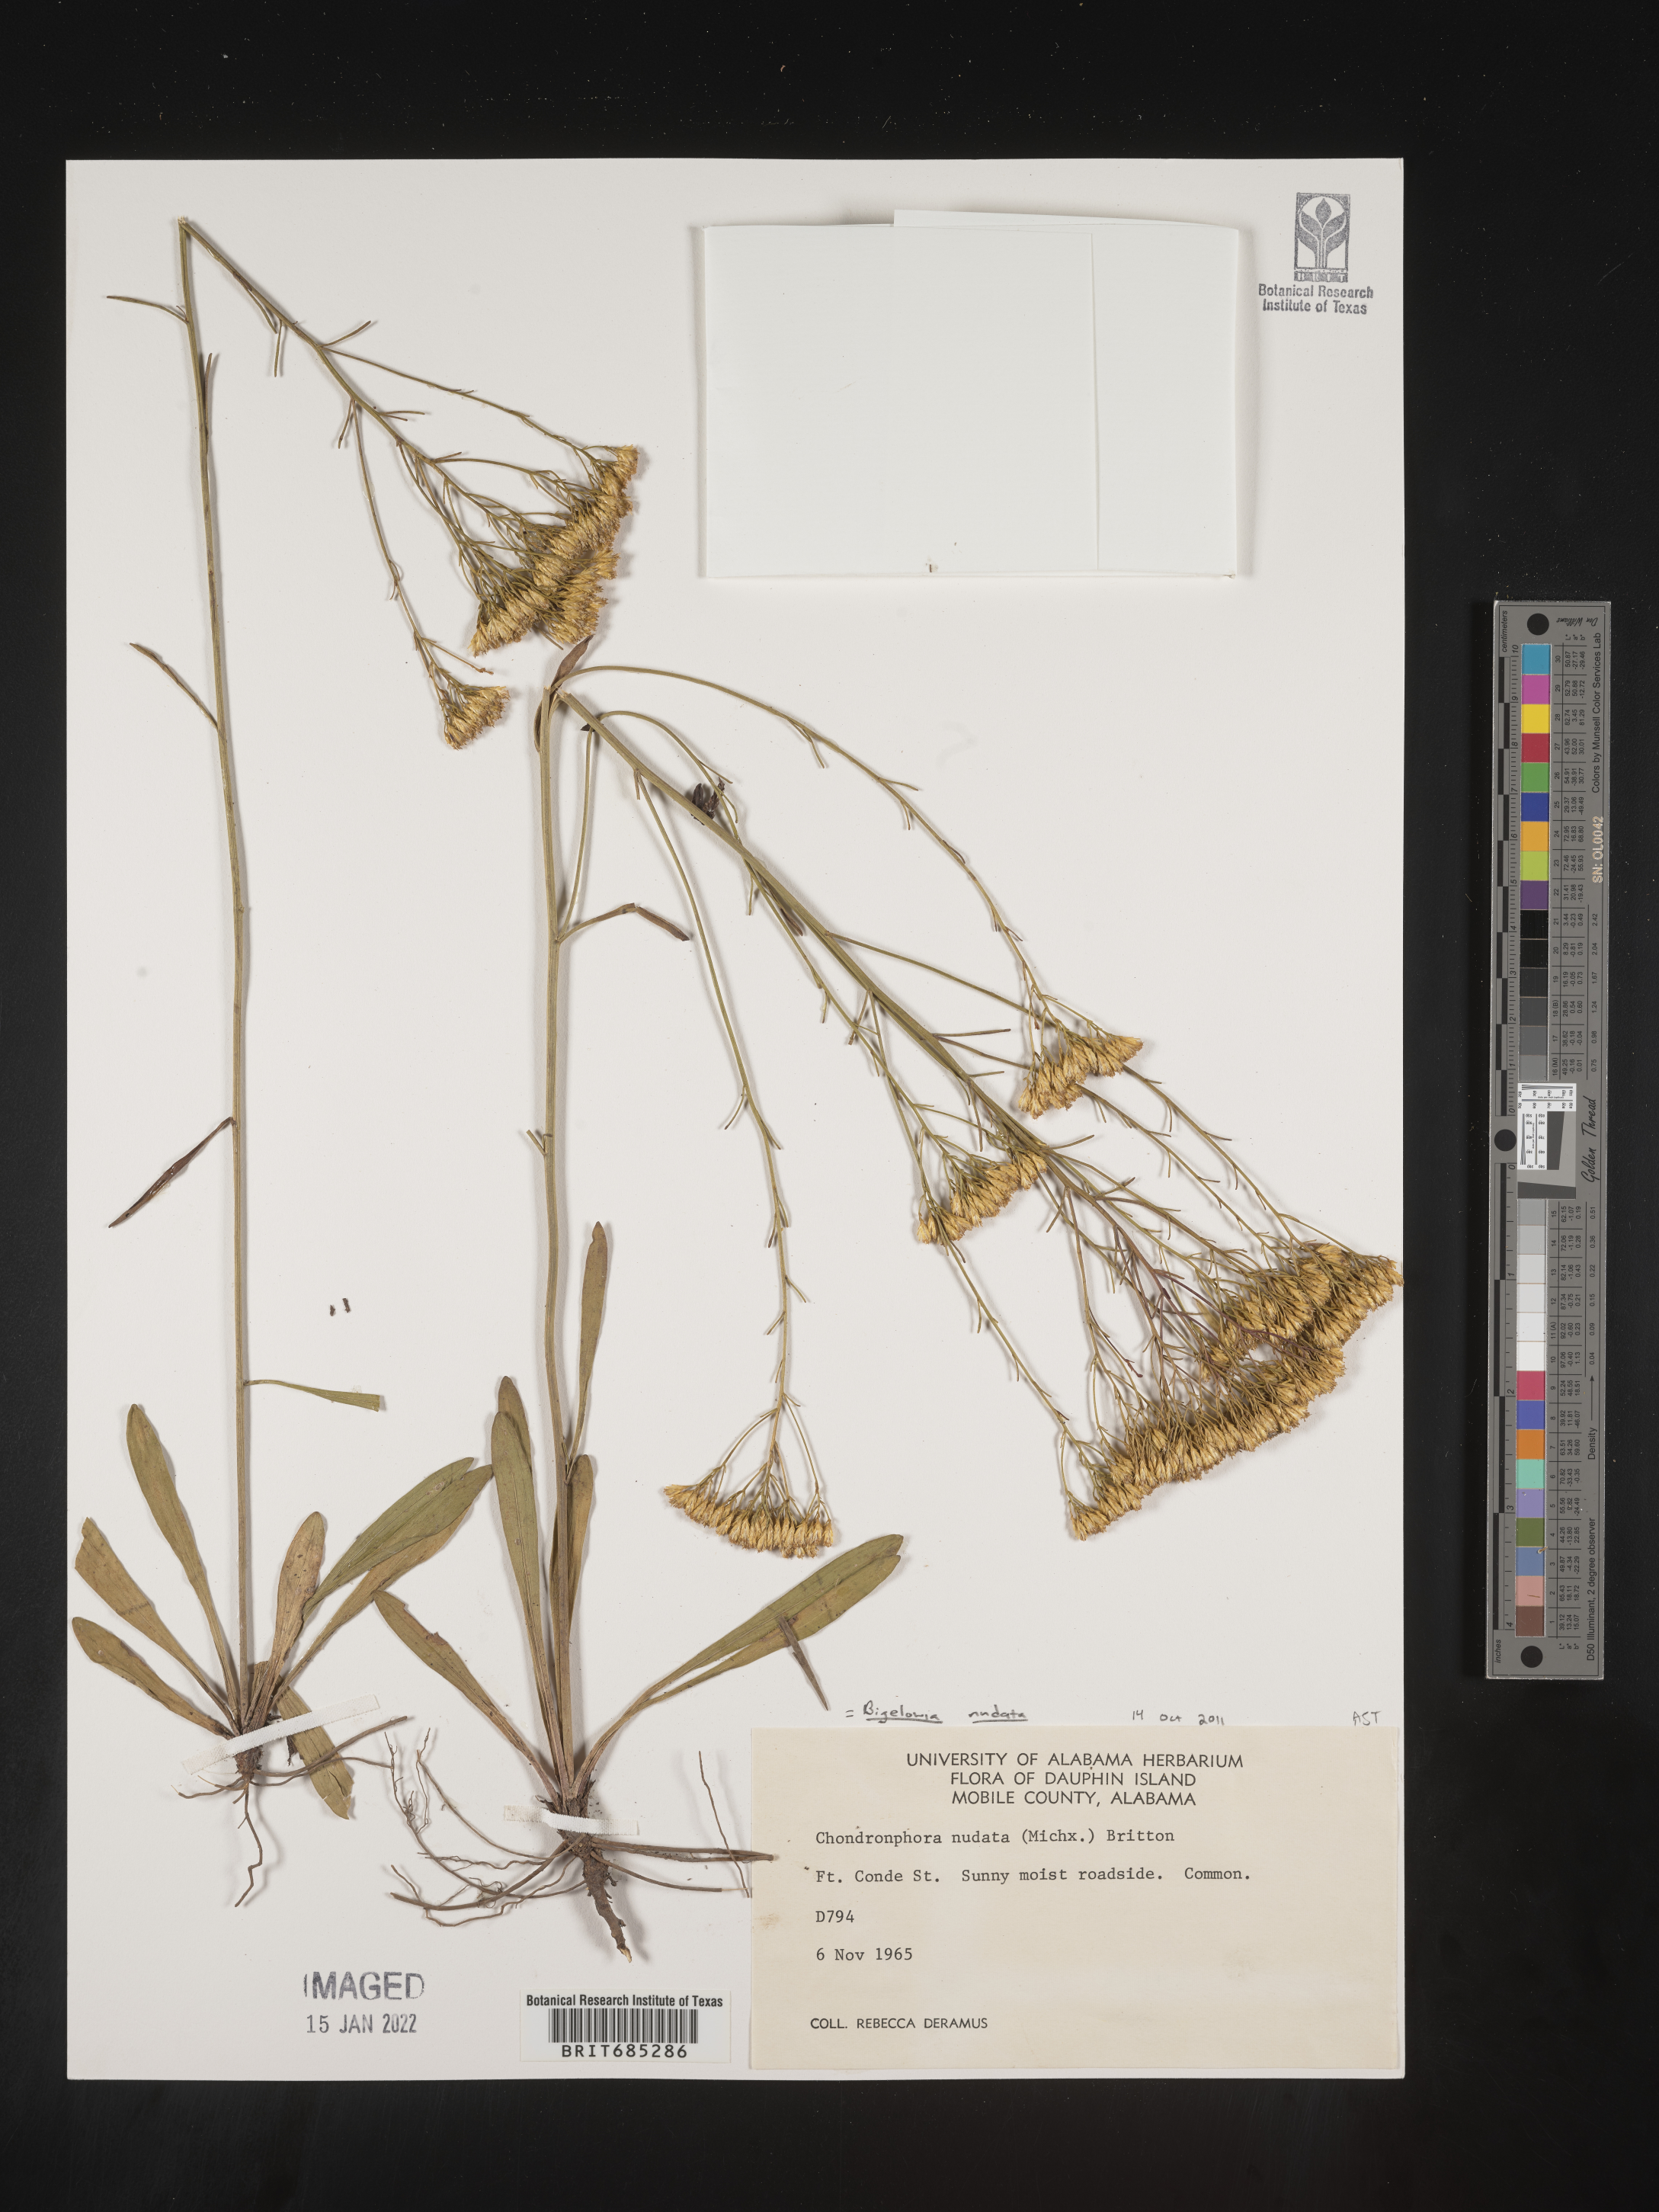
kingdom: Plantae
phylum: Tracheophyta
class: Magnoliopsida
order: Asterales
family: Asteraceae
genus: Bigelowia
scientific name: Bigelowia nudata
